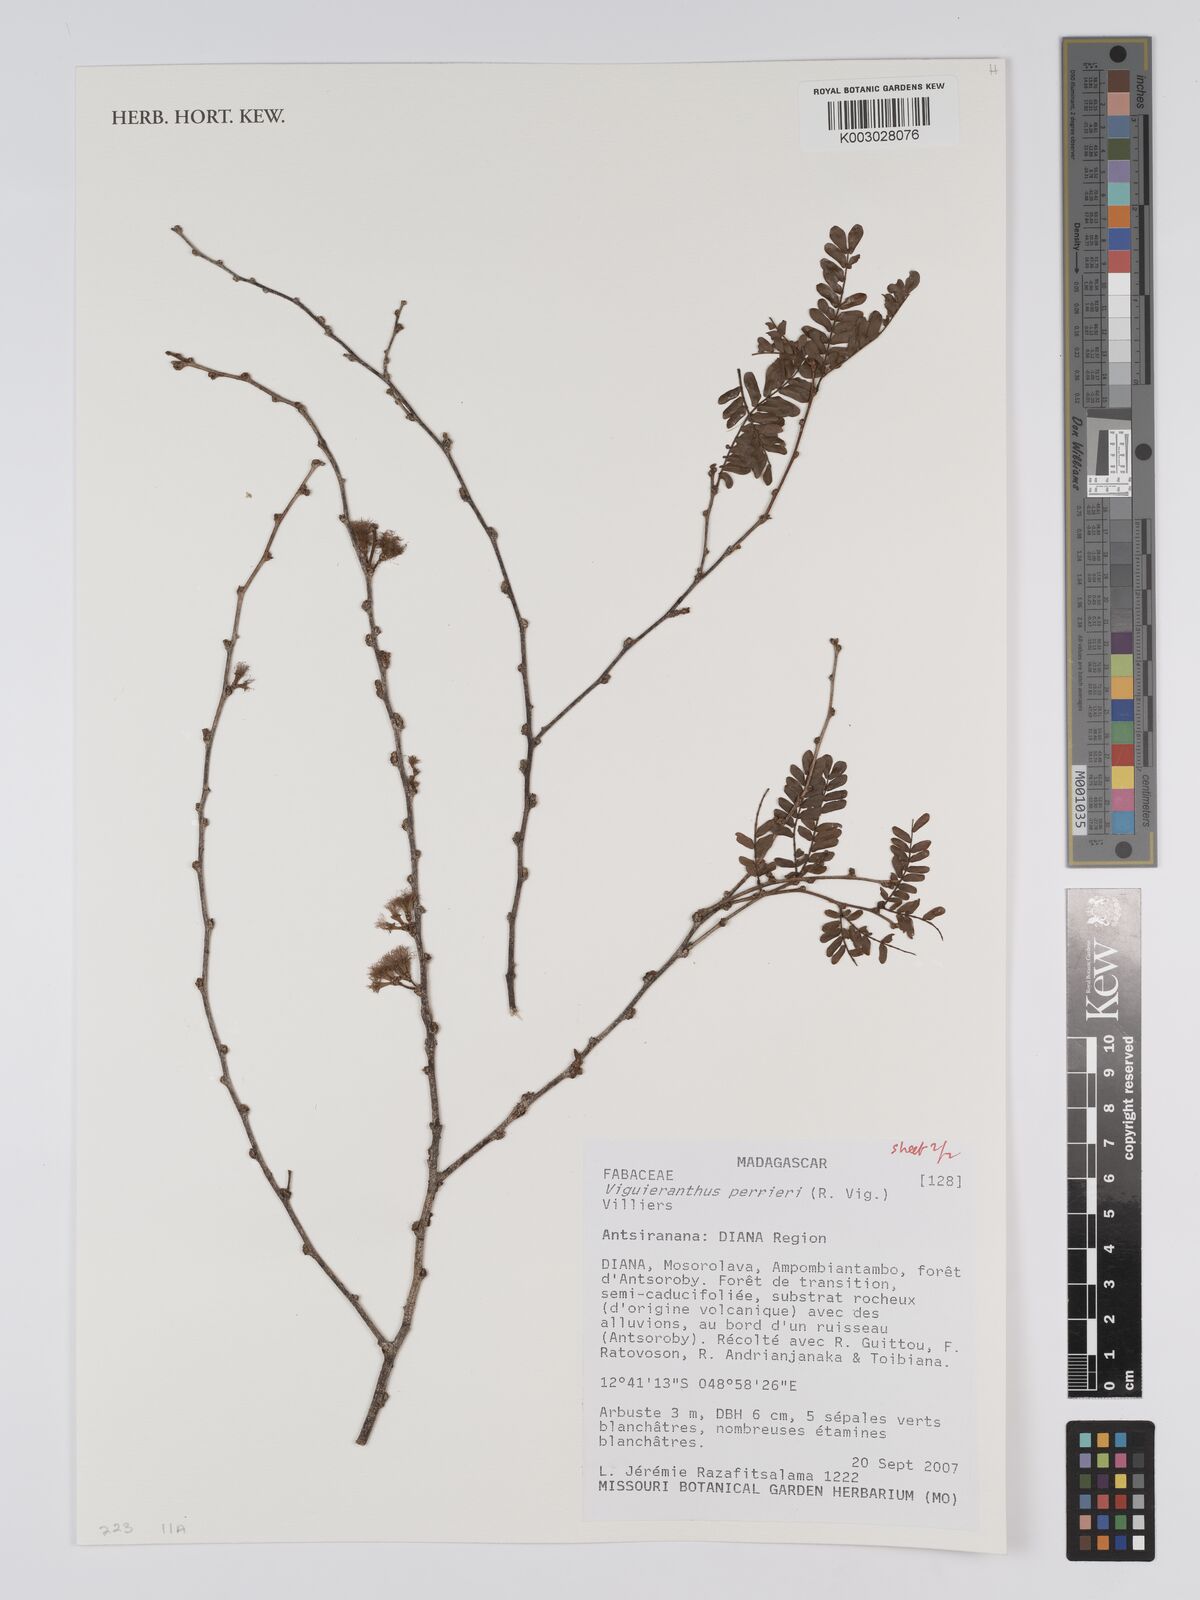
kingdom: Plantae
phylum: Tracheophyta
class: Magnoliopsida
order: Fabales
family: Fabaceae
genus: Viguieranthus
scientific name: Viguieranthus perrieri
